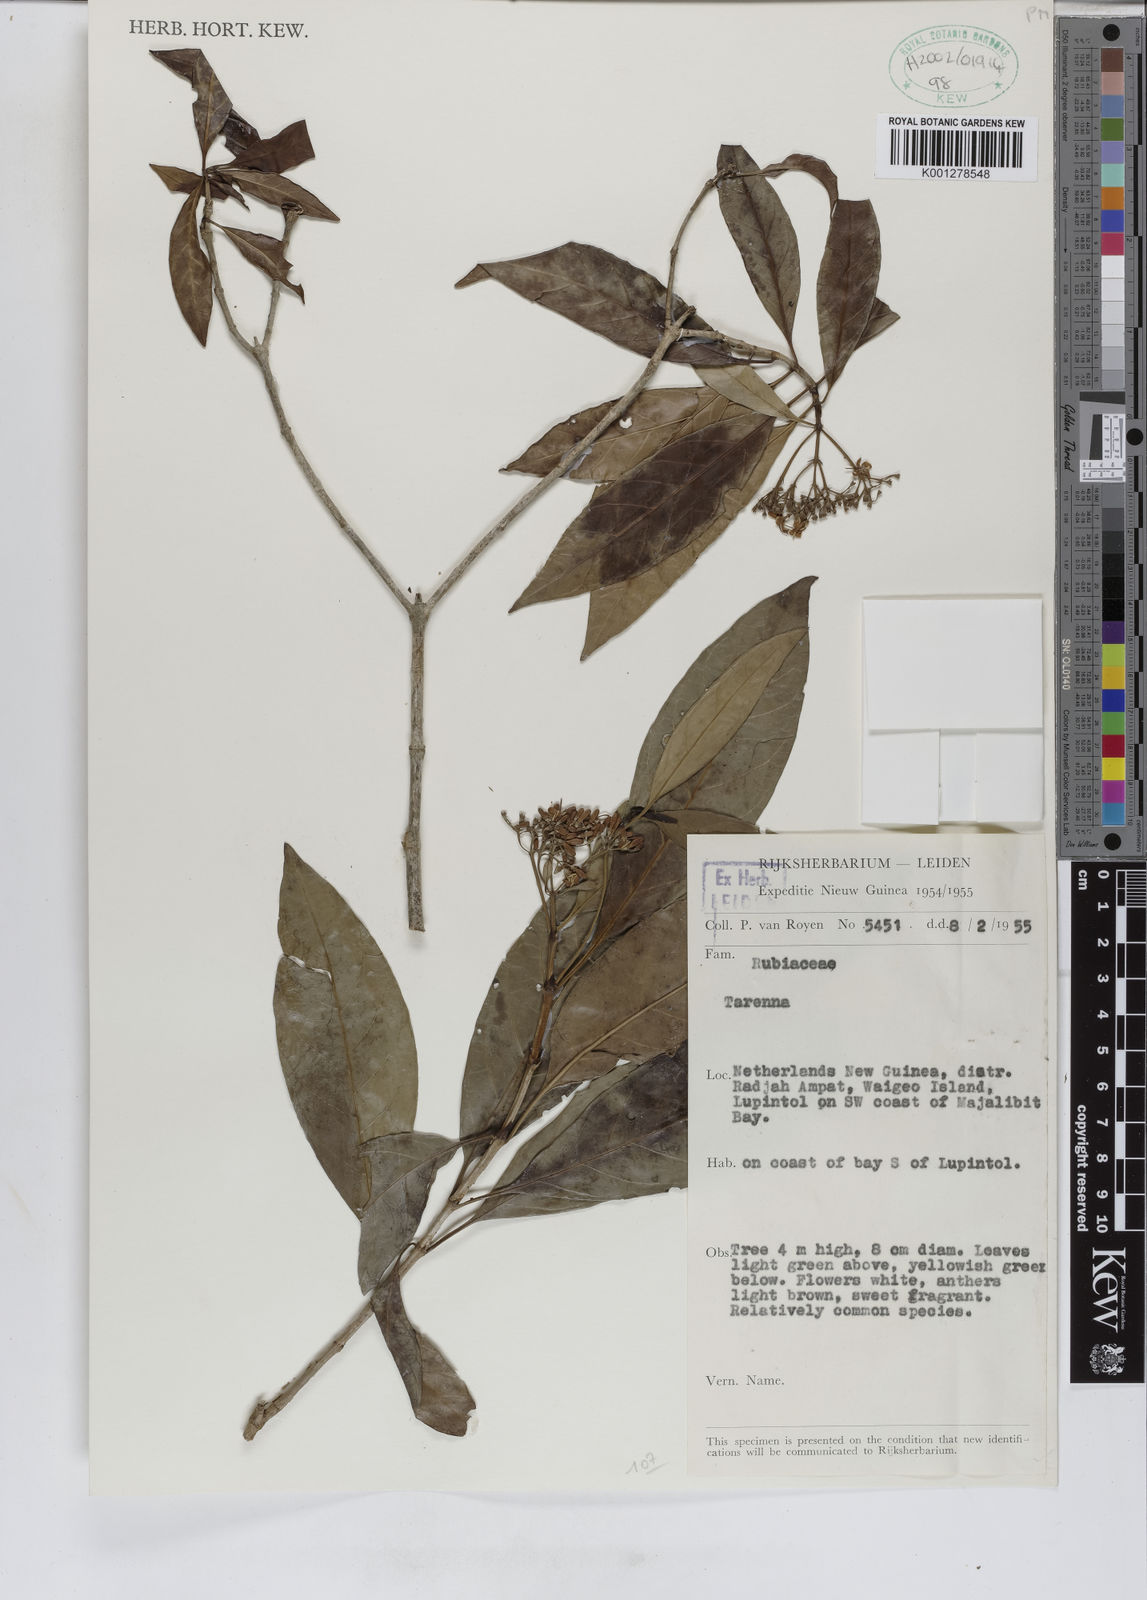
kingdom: Plantae
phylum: Tracheophyta
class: Magnoliopsida
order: Gentianales
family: Rubiaceae
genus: Tarenna
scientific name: Tarenna
